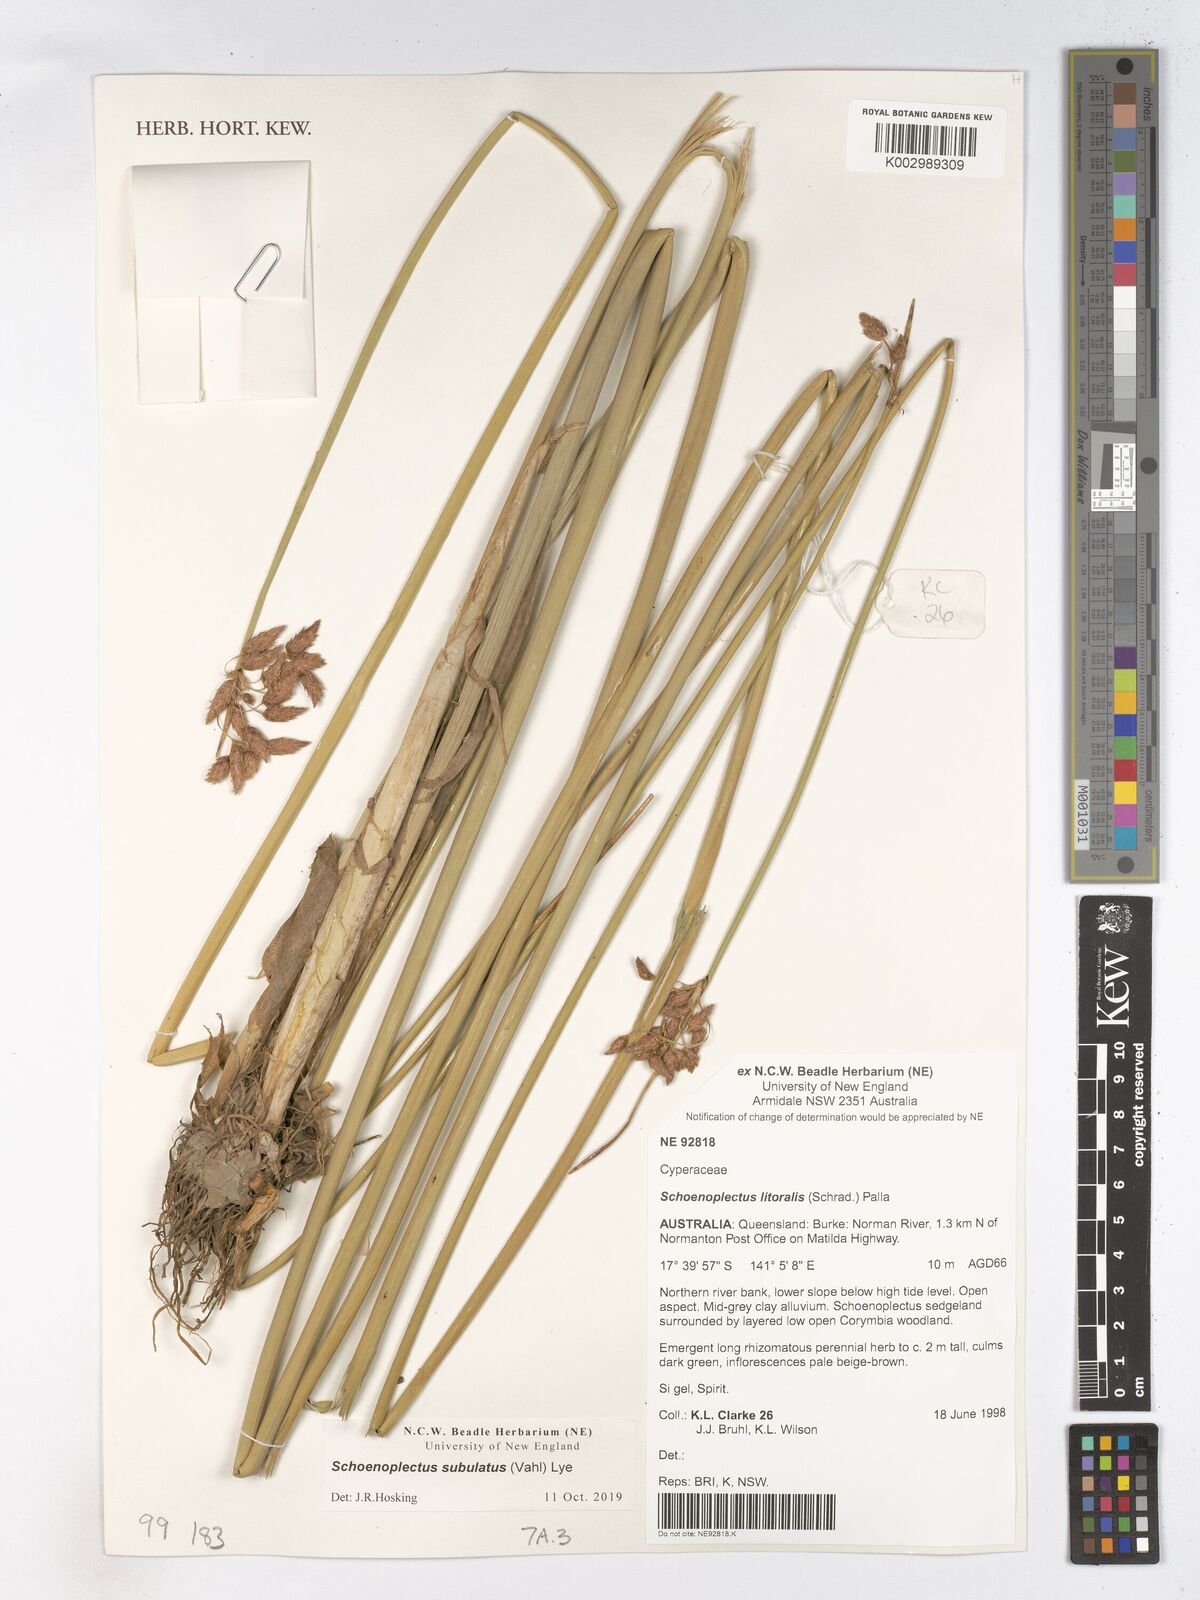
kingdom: Plantae
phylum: Tracheophyta
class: Liliopsida
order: Poales
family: Cyperaceae
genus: Schoenoplectus
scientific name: Schoenoplectus subulatus
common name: Coast club-rush
